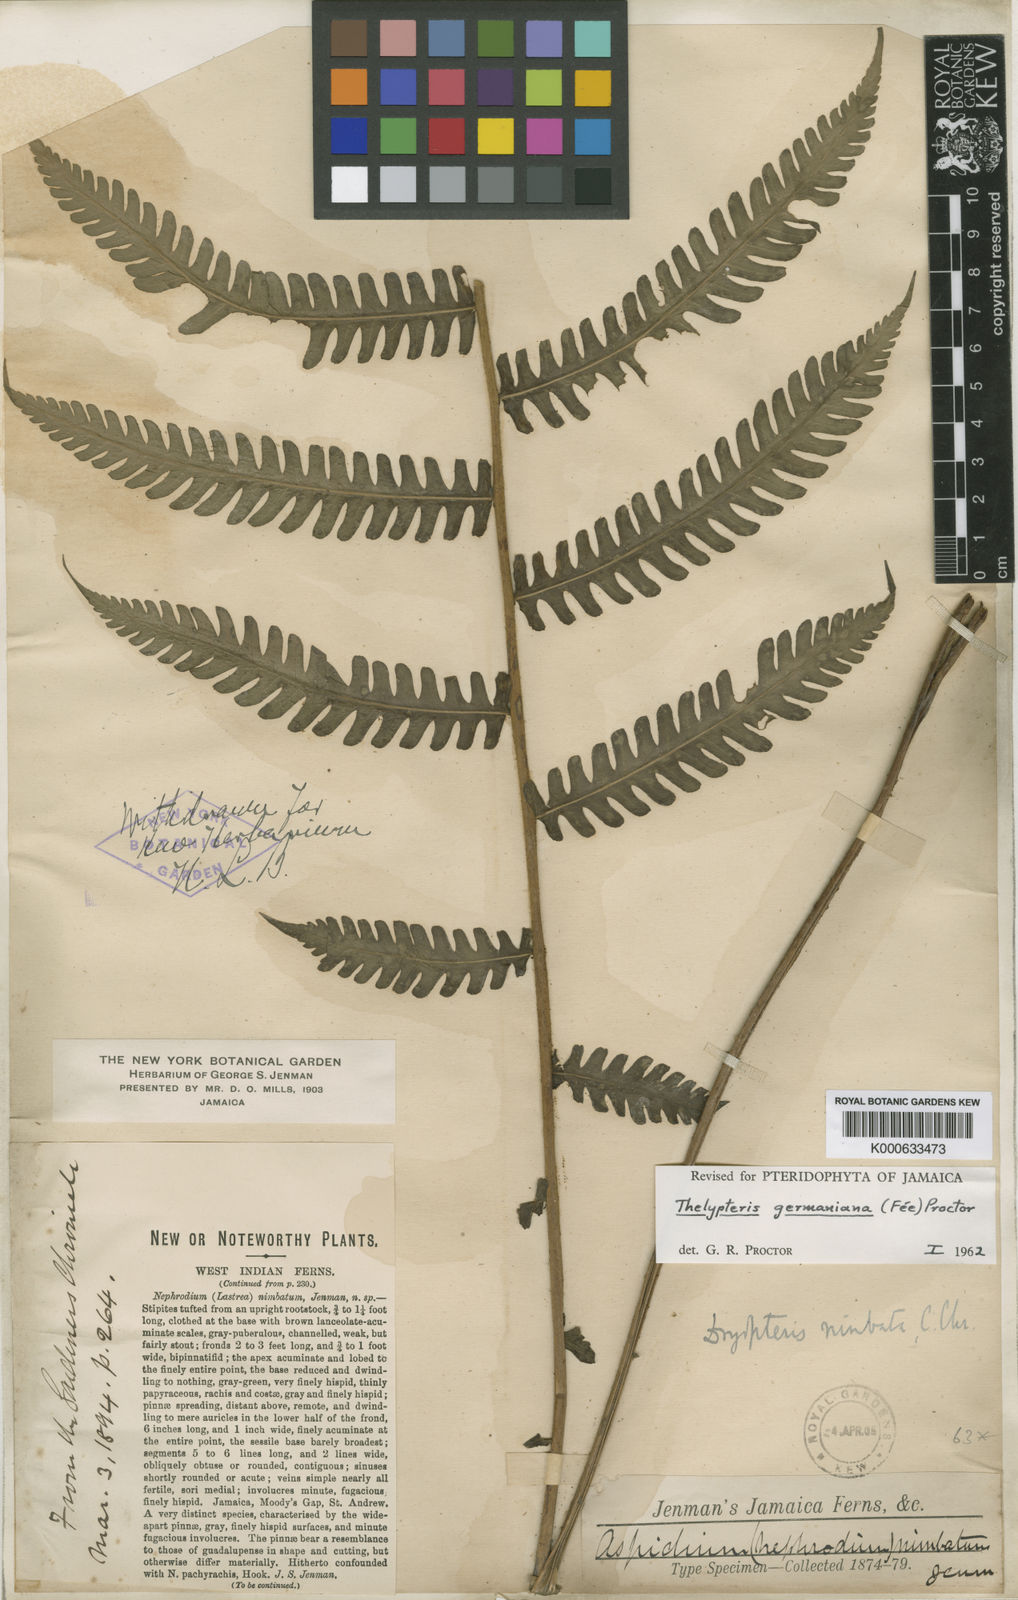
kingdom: Plantae
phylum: Tracheophyta
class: Polypodiopsida
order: Polypodiales
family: Thelypteridaceae
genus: Amauropelta
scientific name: Amauropelta
